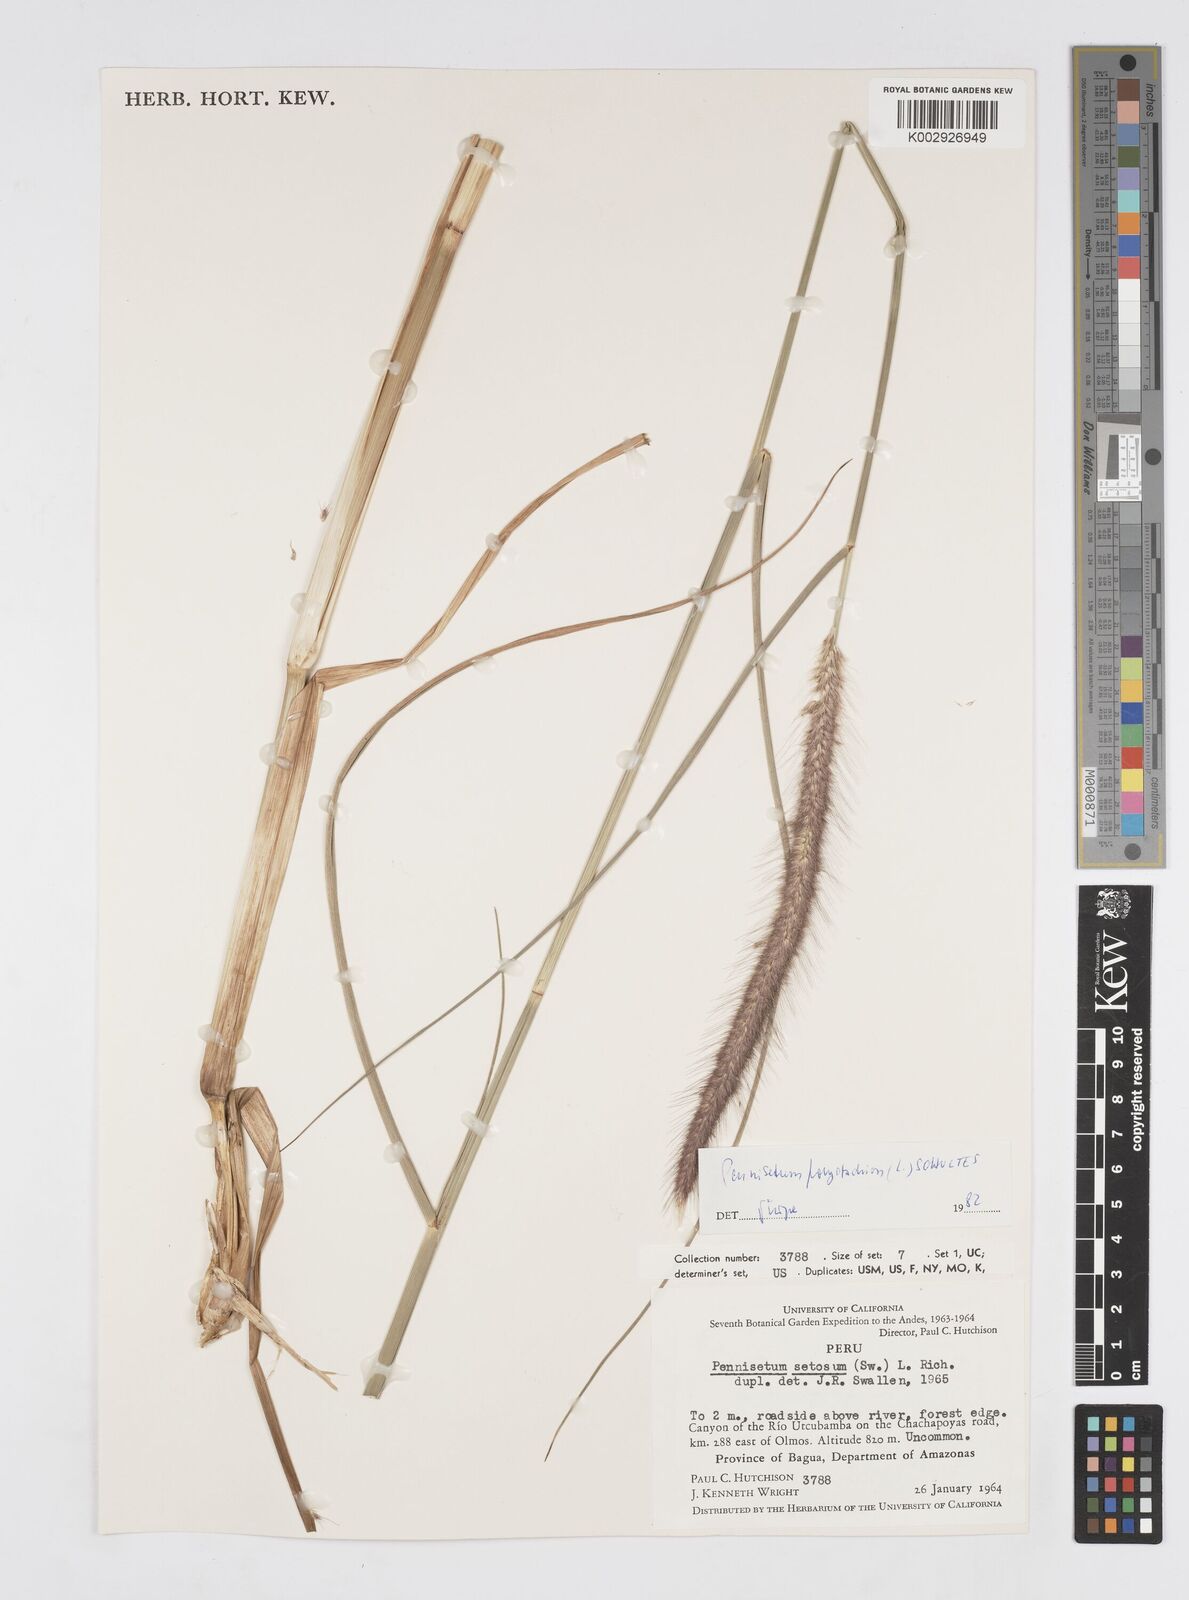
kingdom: Plantae
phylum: Tracheophyta
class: Liliopsida
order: Poales
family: Poaceae
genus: Setaria
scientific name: Setaria parviflora
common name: Knotroot bristle-grass
